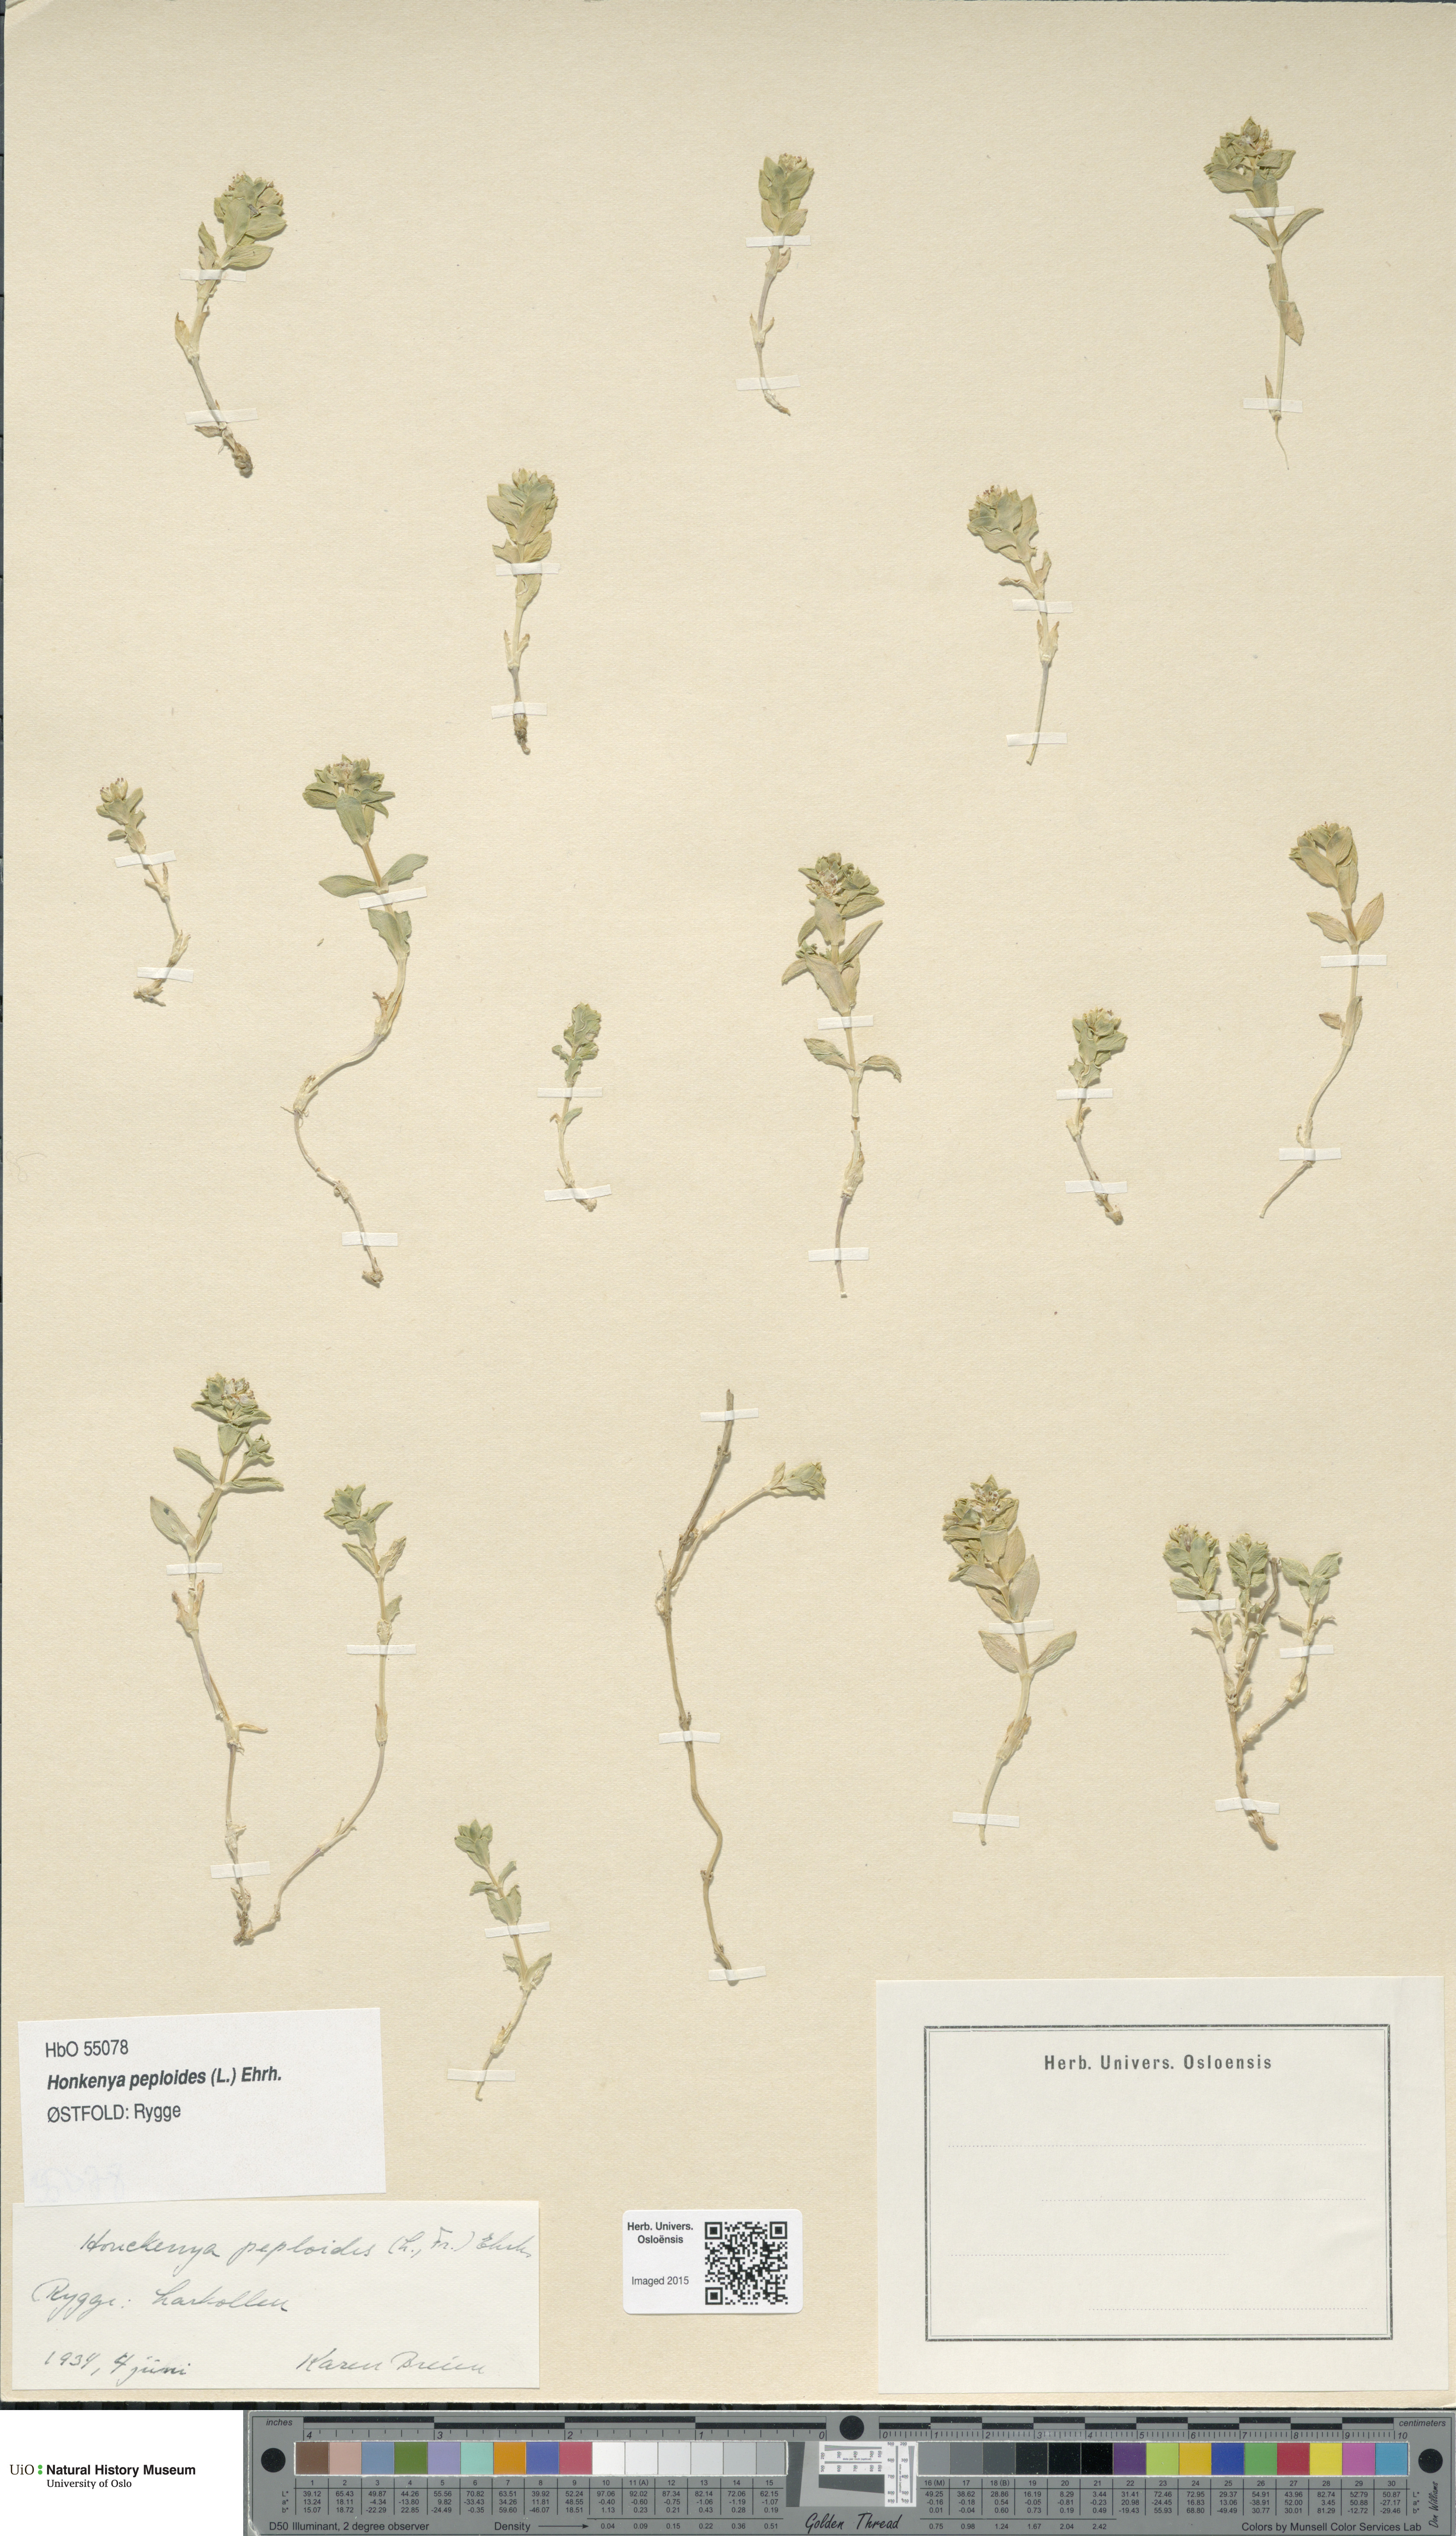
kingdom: Plantae
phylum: Tracheophyta
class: Magnoliopsida
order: Caryophyllales
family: Caryophyllaceae
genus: Honckenya
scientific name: Honckenya peploides
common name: Sea sandwort
